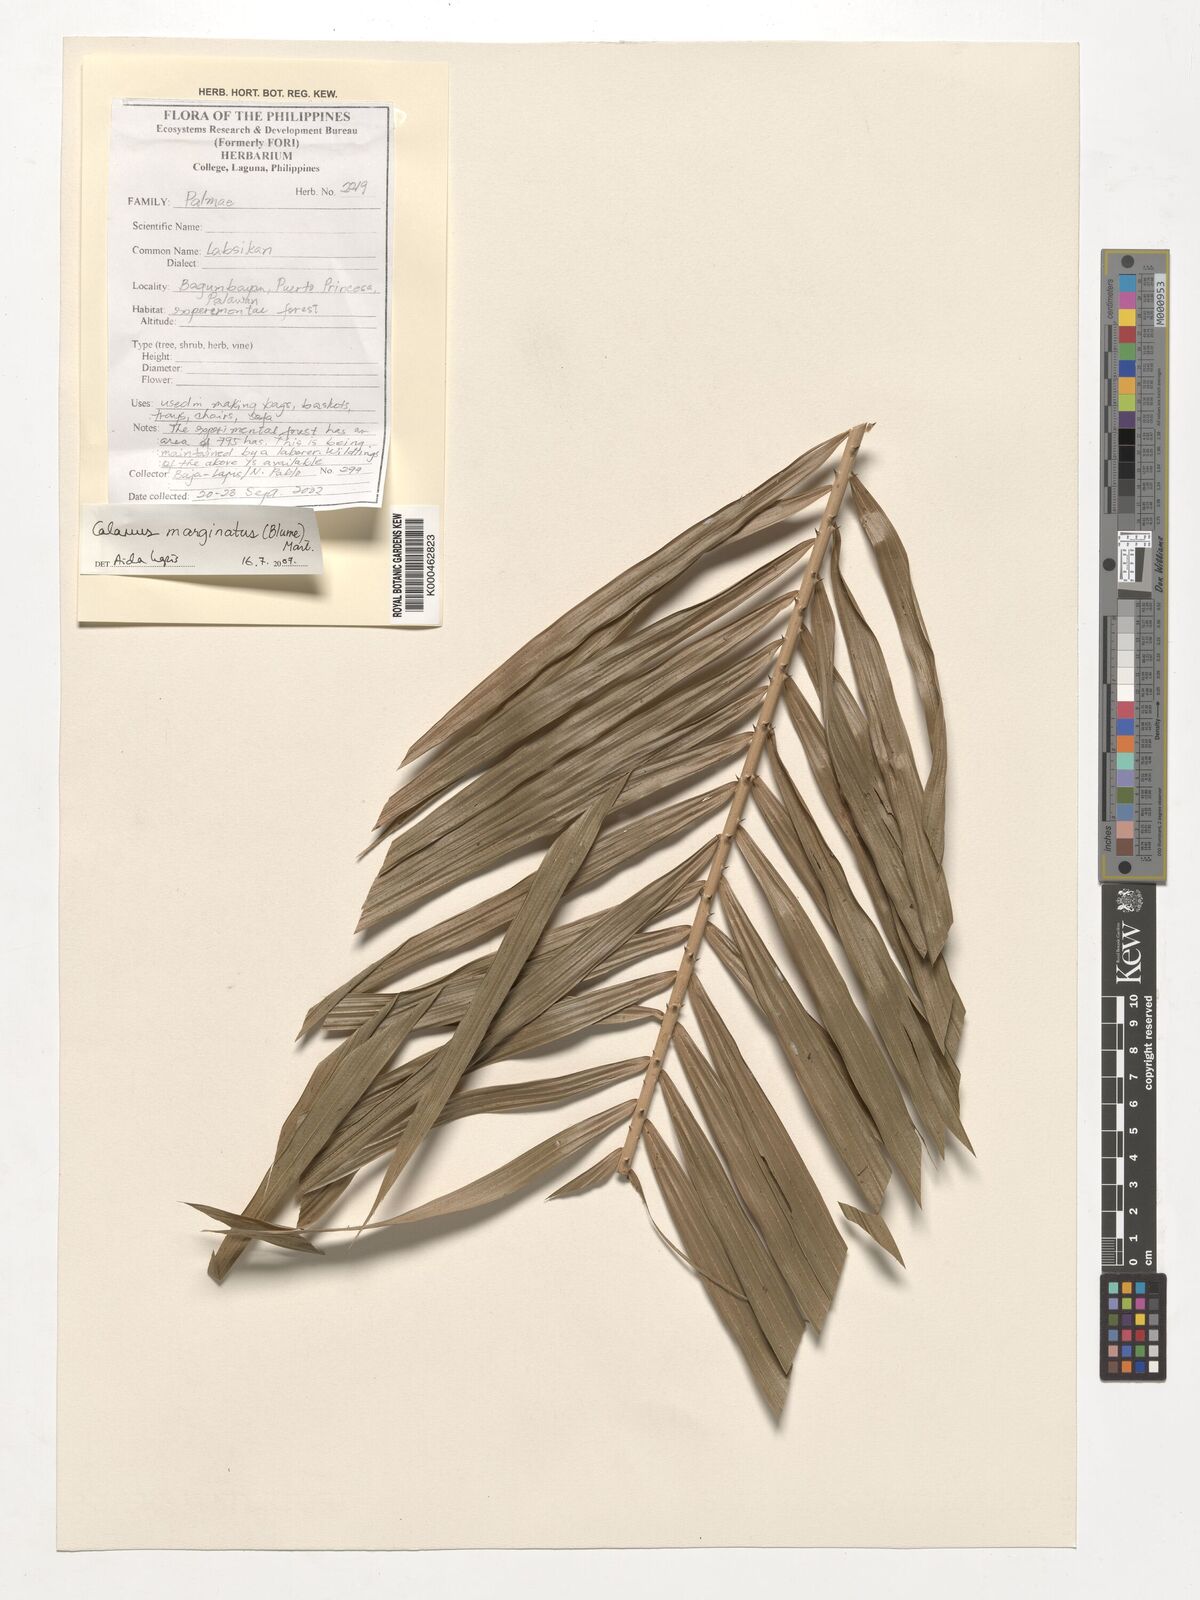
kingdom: Plantae
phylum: Tracheophyta
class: Liliopsida
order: Arecales
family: Arecaceae
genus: Calamus
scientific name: Calamus
